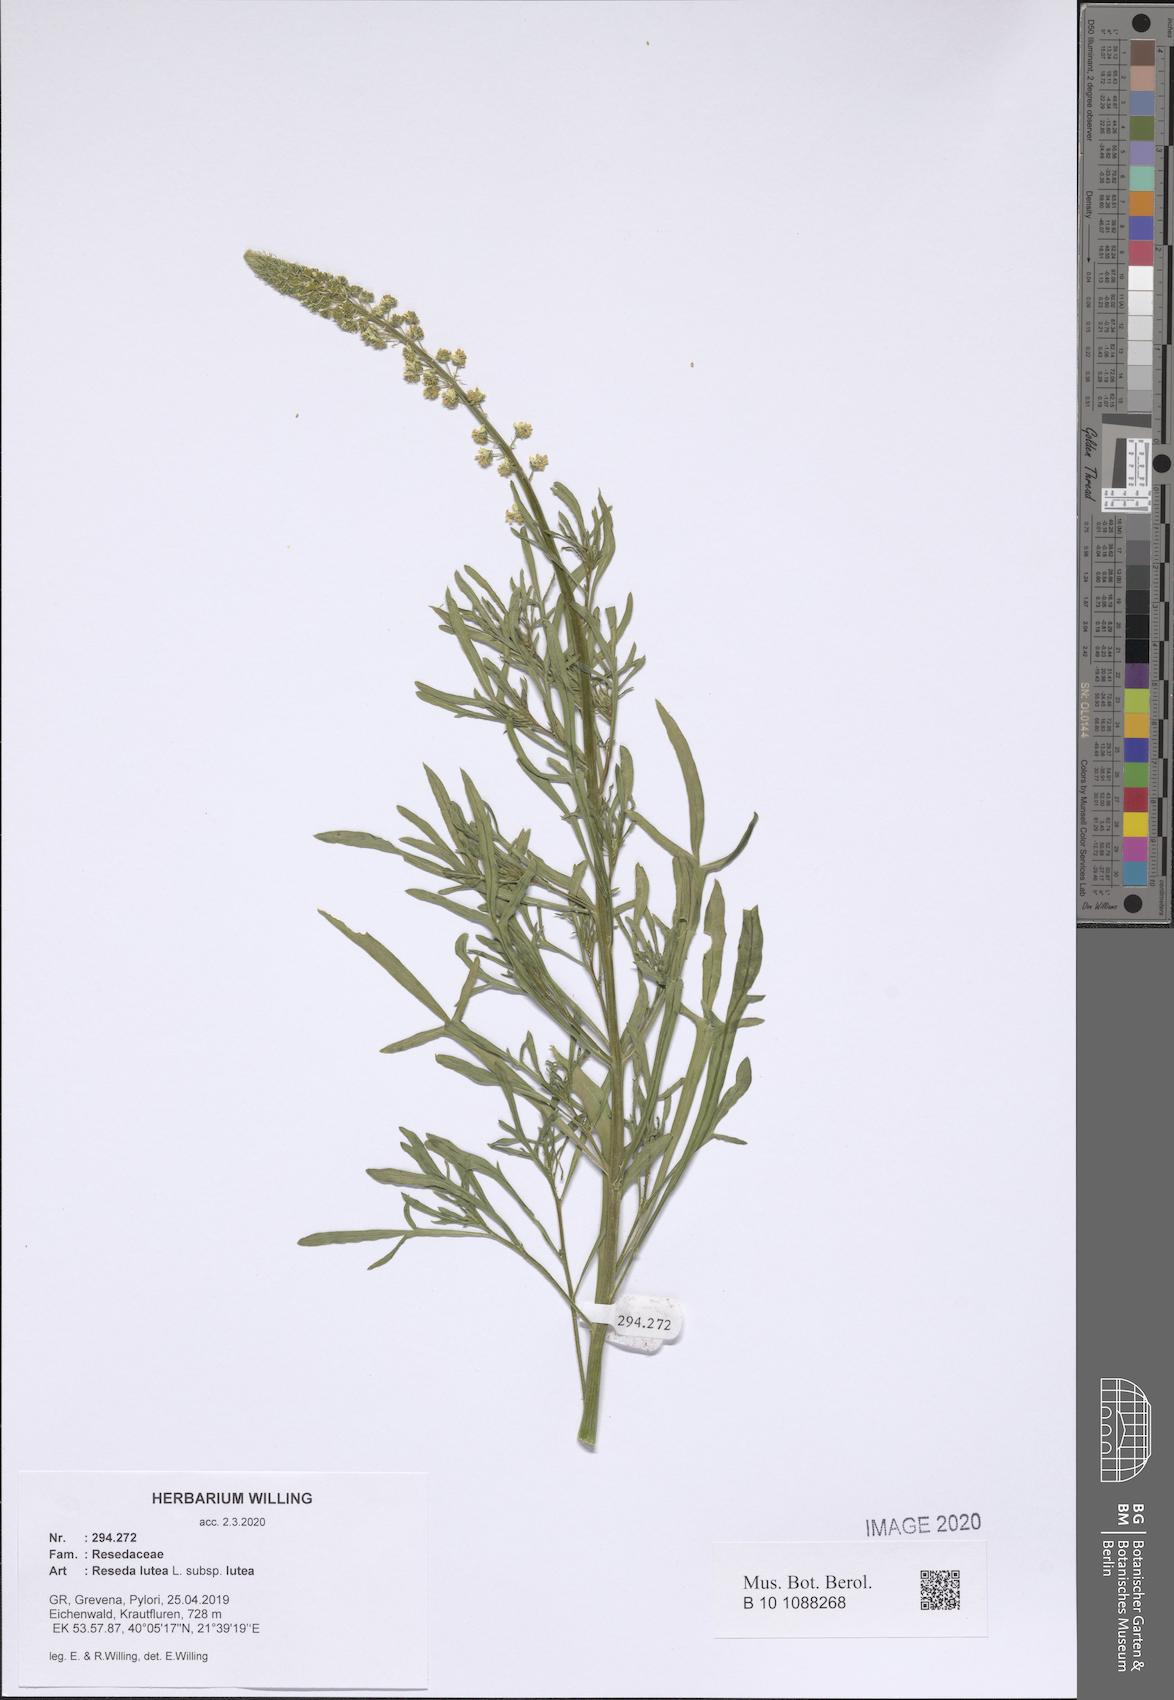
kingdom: Plantae
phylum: Tracheophyta
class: Magnoliopsida
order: Brassicales
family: Resedaceae
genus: Reseda
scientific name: Reseda lutea
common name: Wild mignonette
